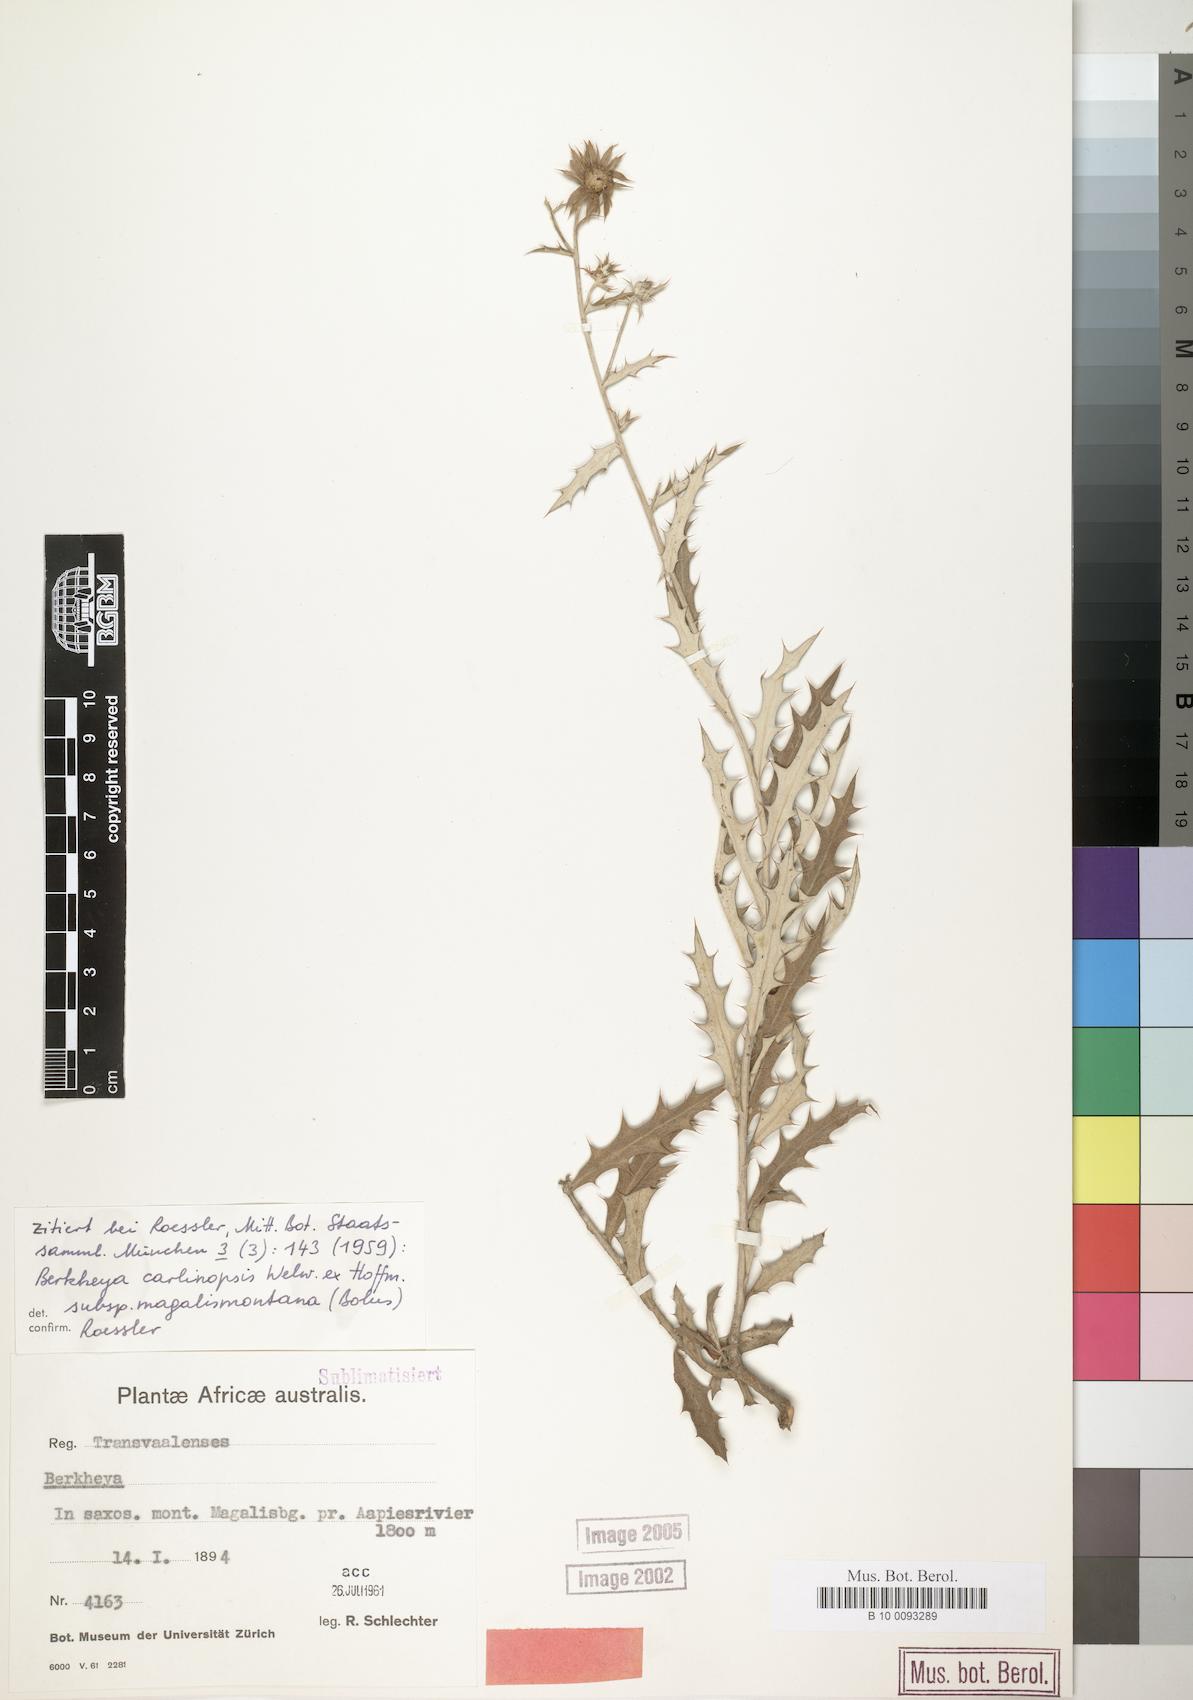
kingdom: Plantae
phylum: Tracheophyta
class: Magnoliopsida
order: Asterales
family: Asteraceae
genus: Berkheya
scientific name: Berkheya carlinopsis
